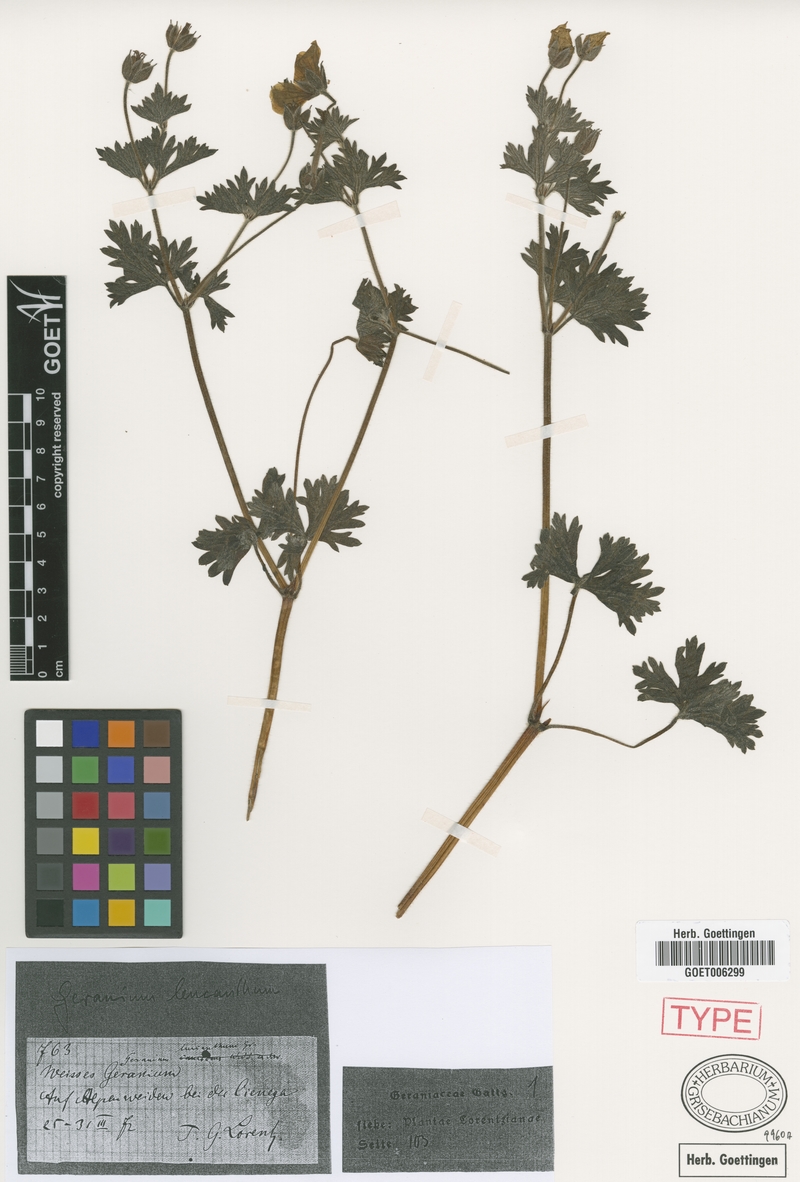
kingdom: Plantae
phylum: Tracheophyta
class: Magnoliopsida
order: Geraniales
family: Geraniaceae
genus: Geranium
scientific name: Geranium leucanthum
